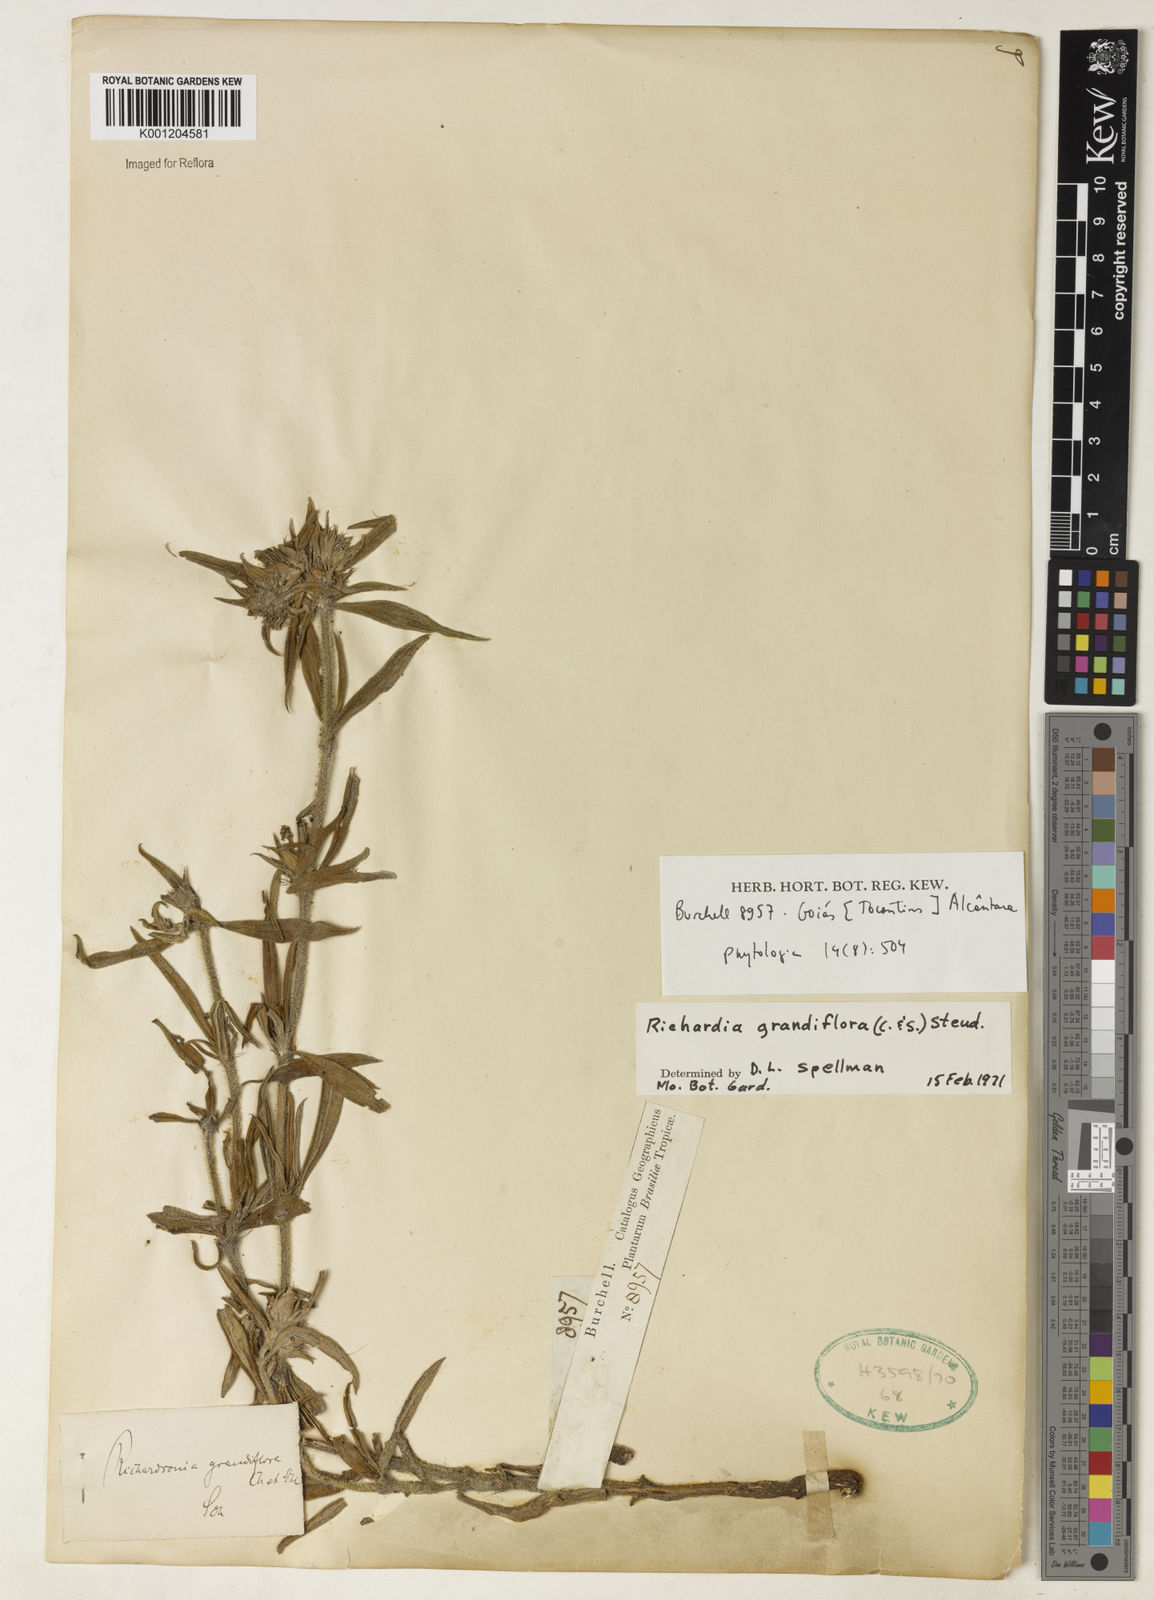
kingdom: Plantae
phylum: Tracheophyta
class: Magnoliopsida
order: Gentianales
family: Rubiaceae
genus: Richardia
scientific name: Richardia grandiflora
